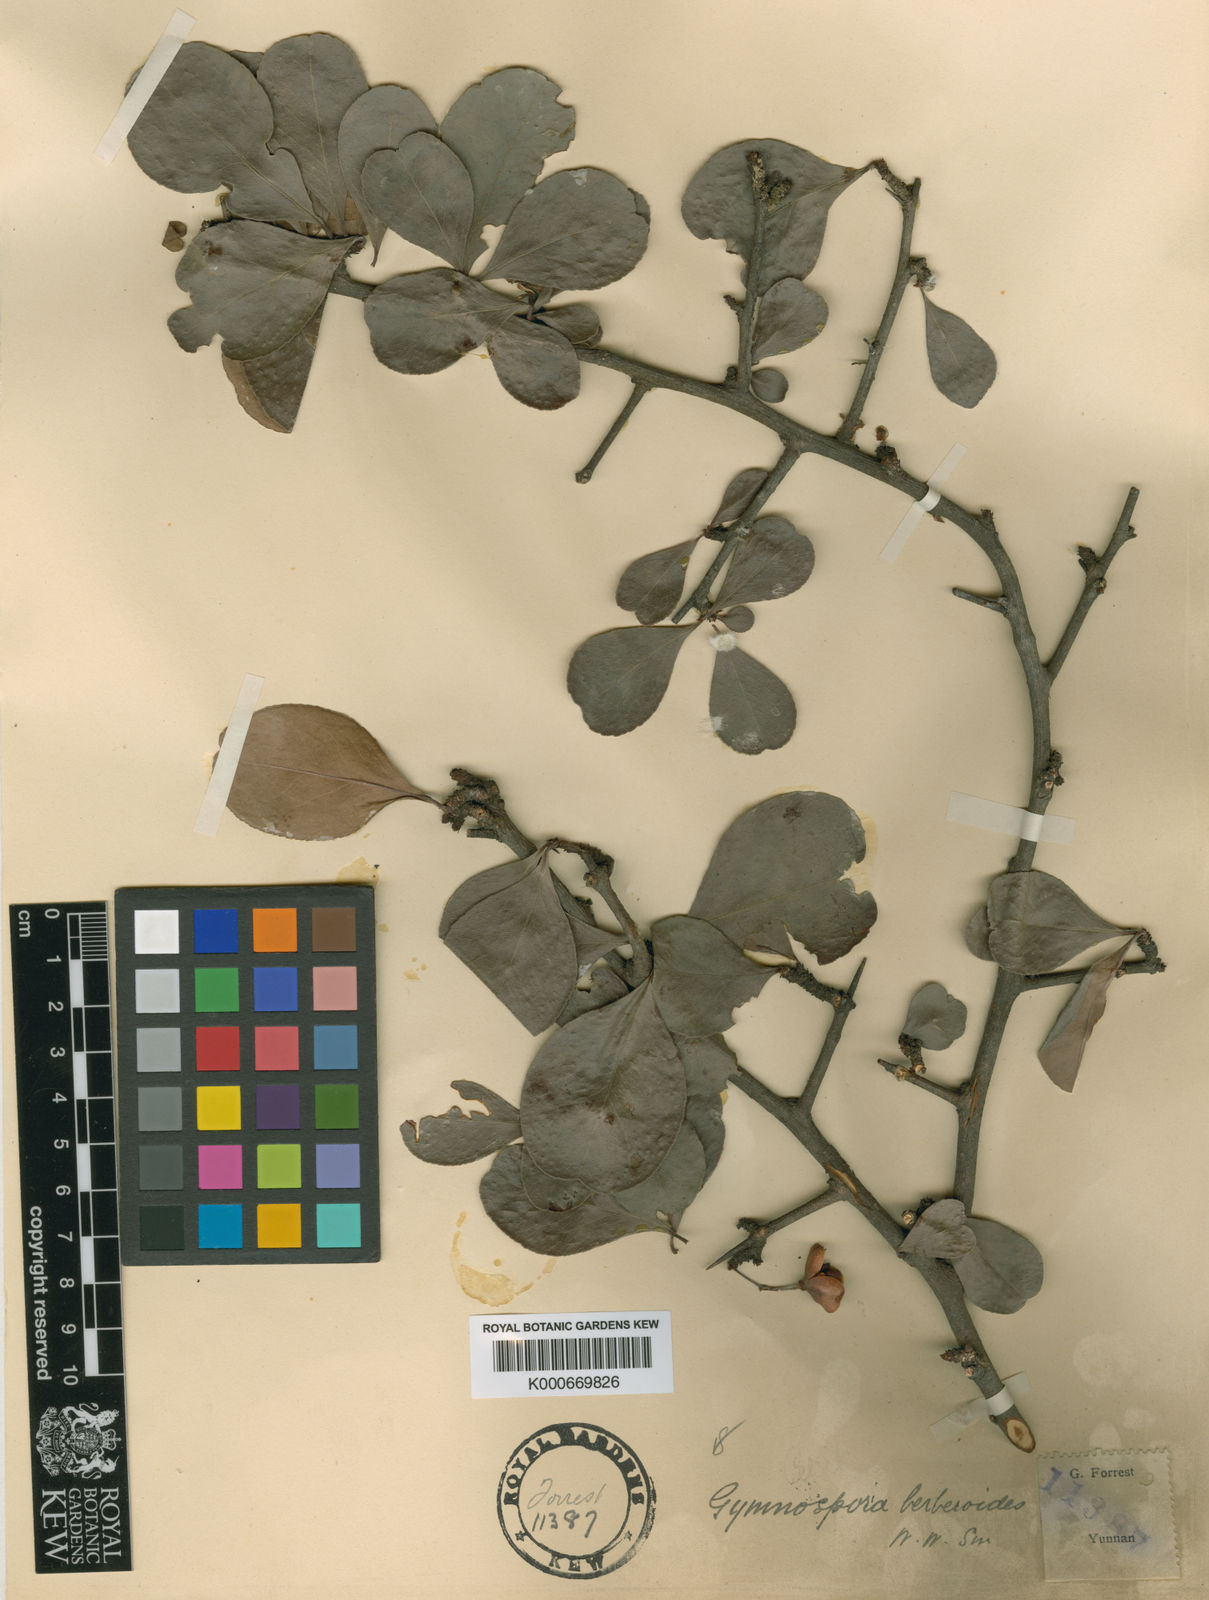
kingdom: Plantae
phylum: Tracheophyta
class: Magnoliopsida
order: Celastrales
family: Celastraceae
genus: Gymnosporia
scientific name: Gymnosporia royleana
